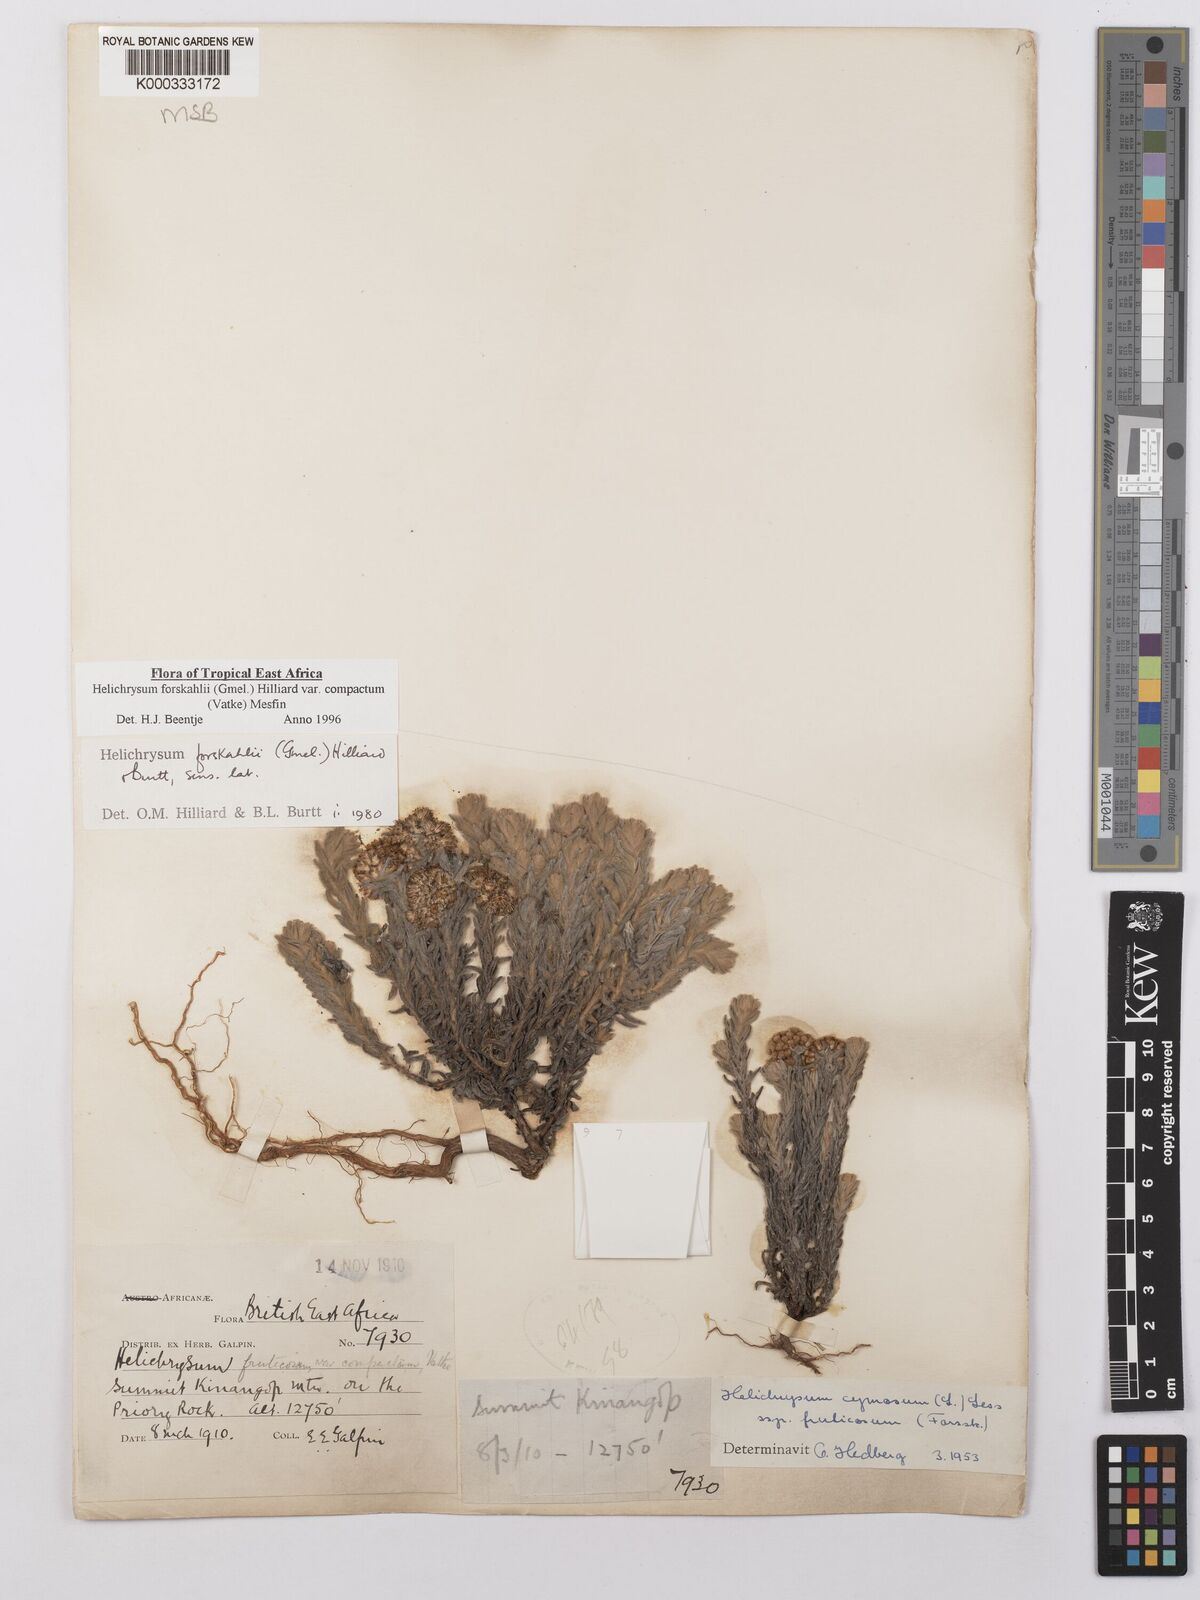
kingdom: Plantae
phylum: Tracheophyta
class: Magnoliopsida
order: Asterales
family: Asteraceae
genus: Helichrysum
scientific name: Helichrysum forskahlii
